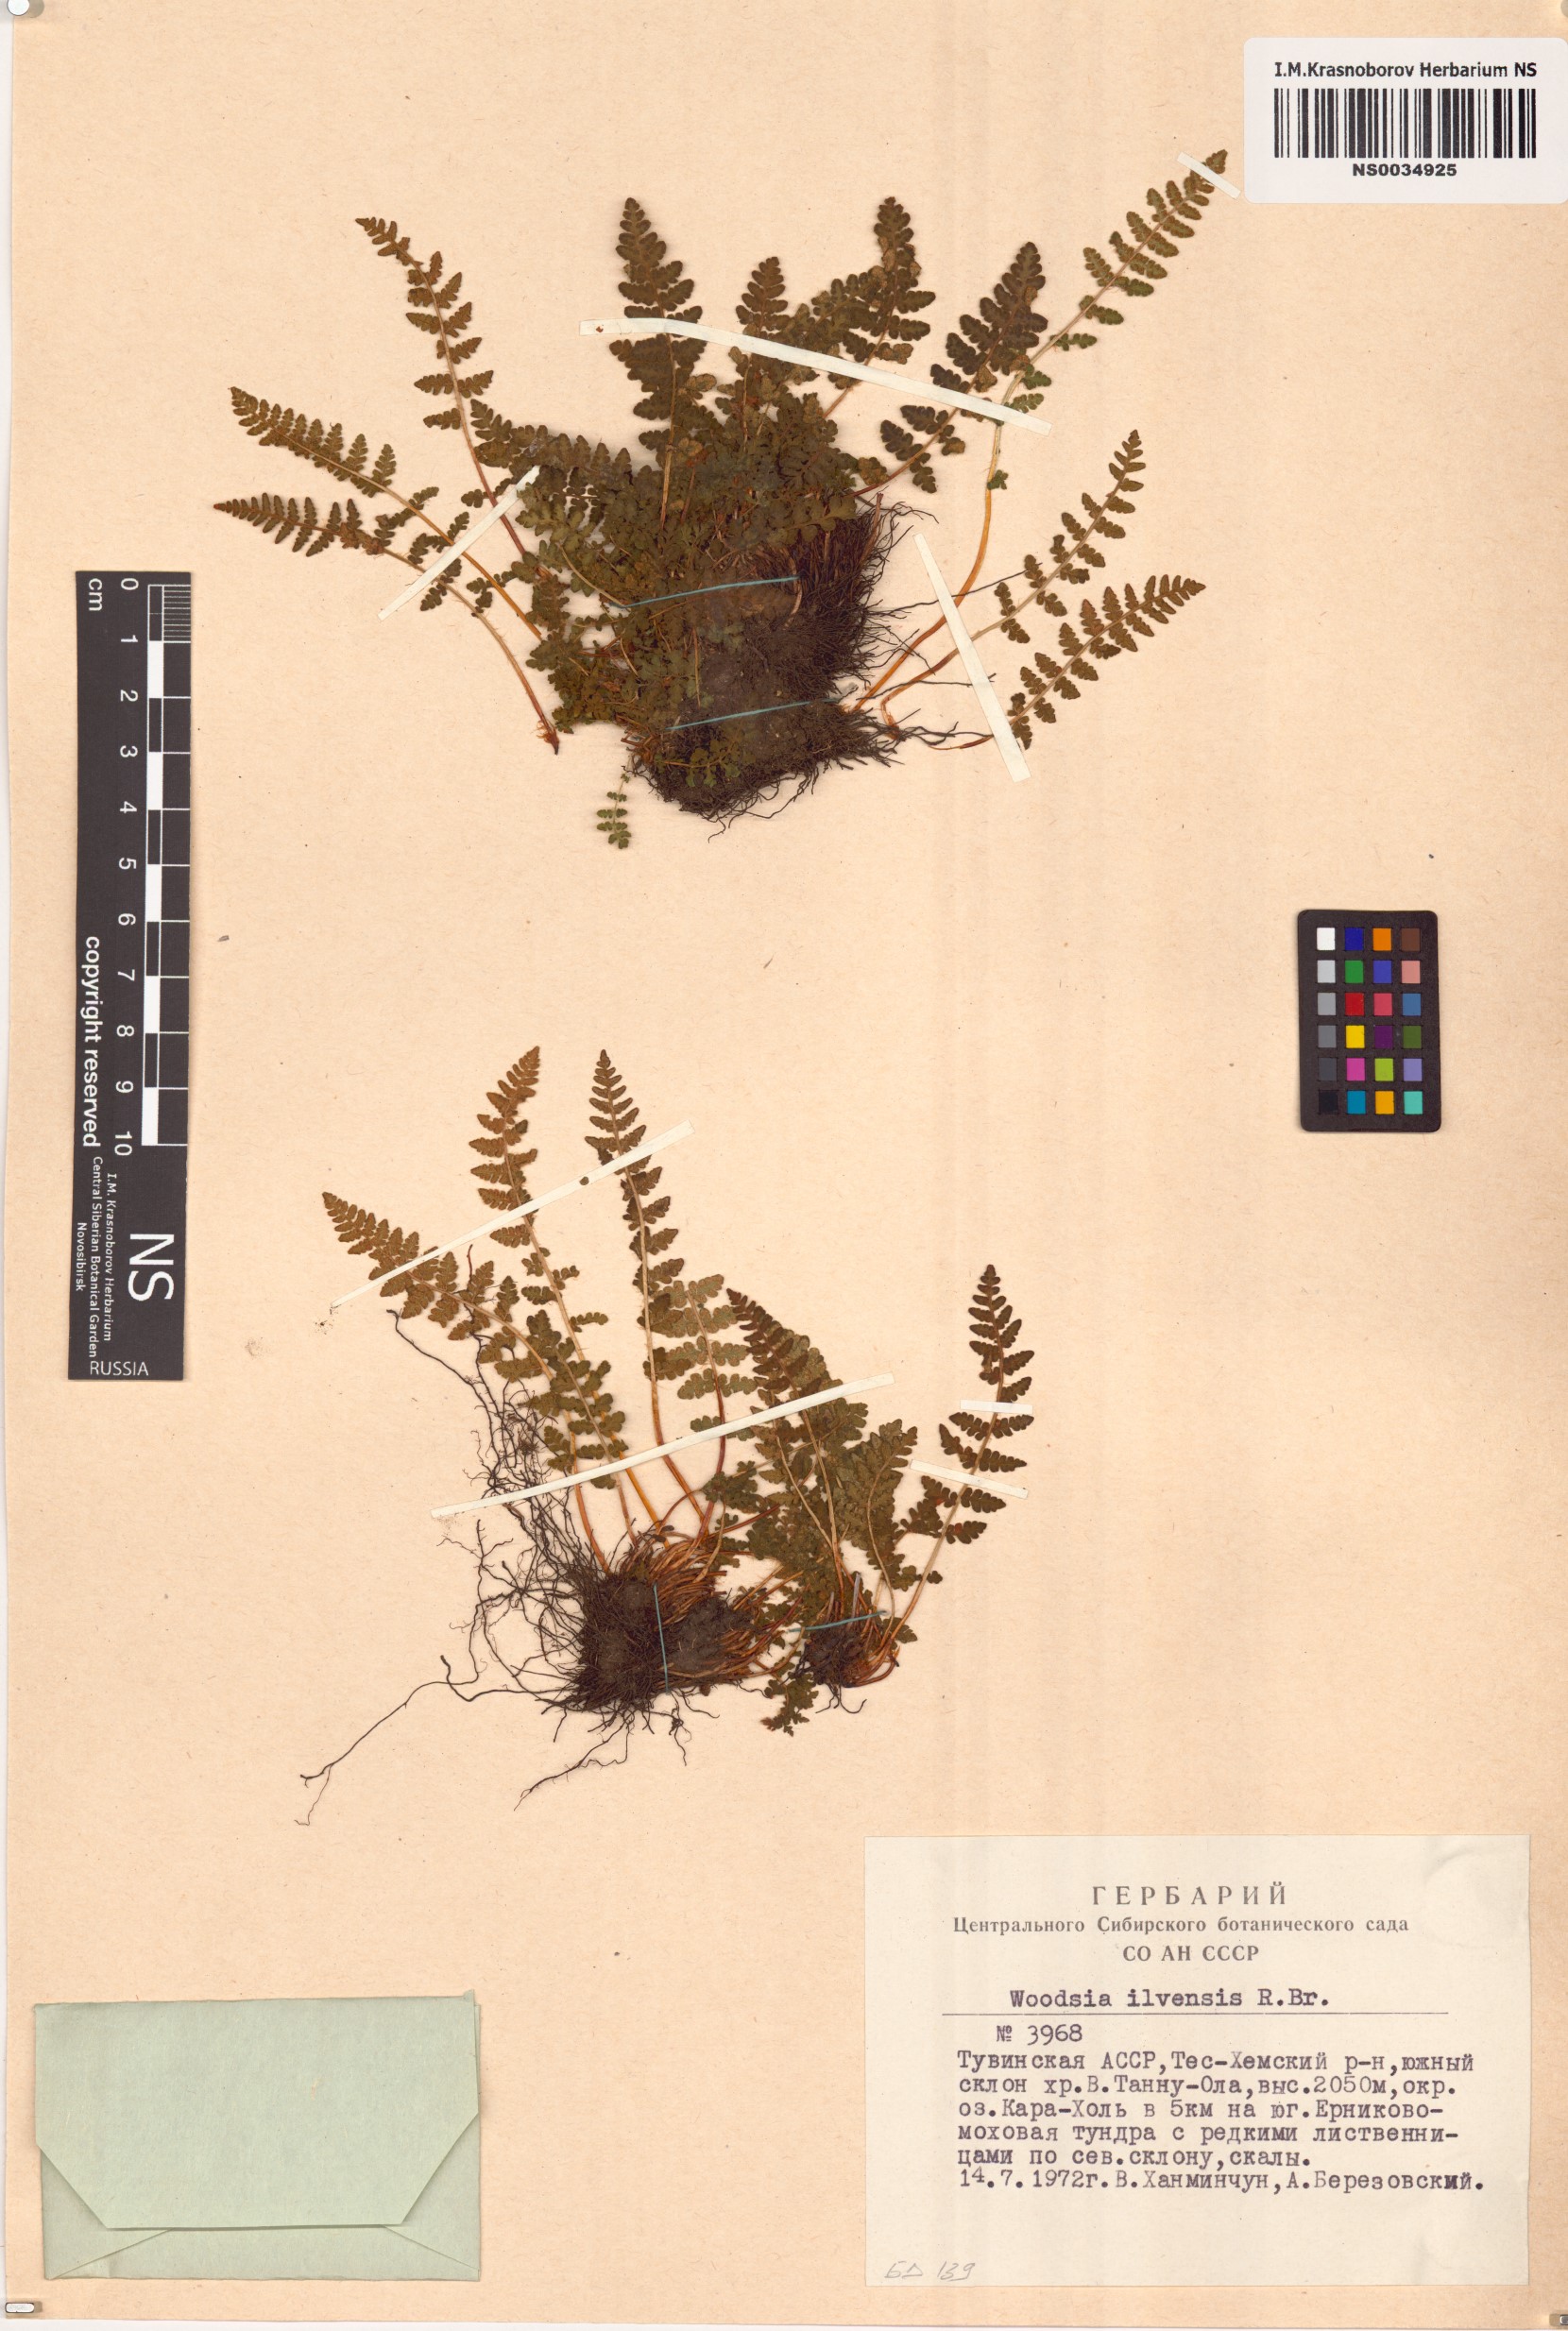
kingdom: Plantae
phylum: Tracheophyta
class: Polypodiopsida
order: Polypodiales
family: Woodsiaceae
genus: Woodsia
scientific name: Woodsia ilvensis
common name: Fragrant woodsia
